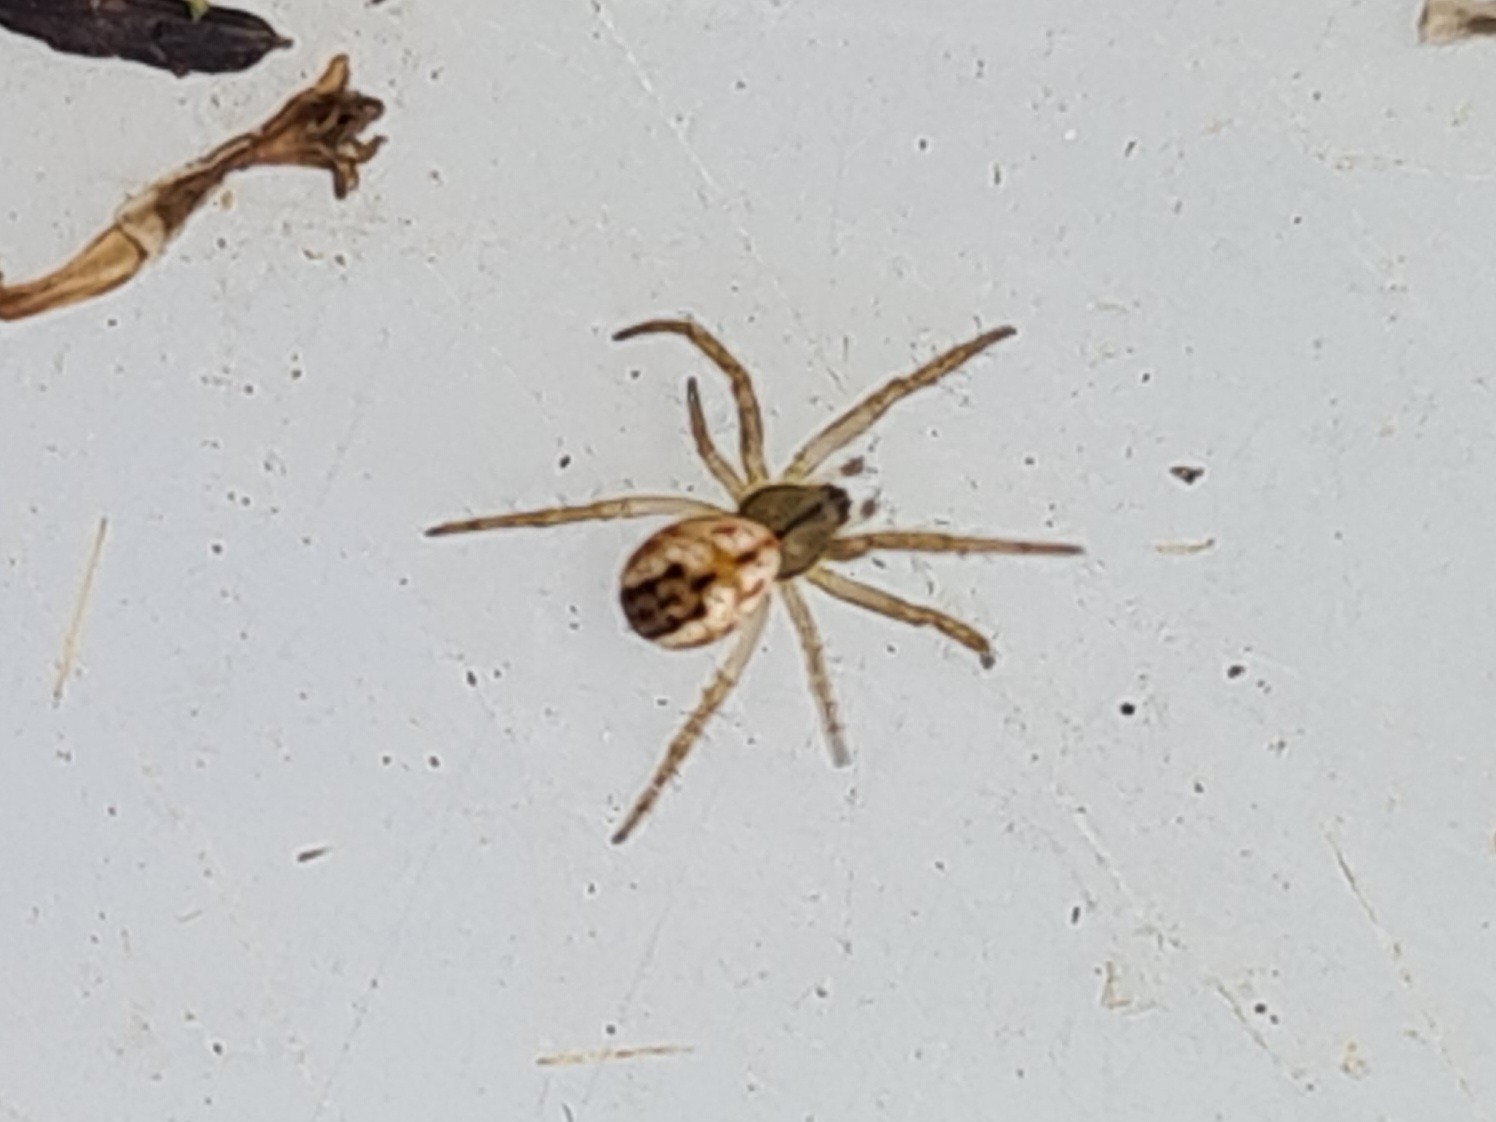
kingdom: Animalia
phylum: Arthropoda
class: Arachnida
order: Araneae
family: Araneidae
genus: Mangora
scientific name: Mangora acalypha
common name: Sortstribet hedehjulspinder
